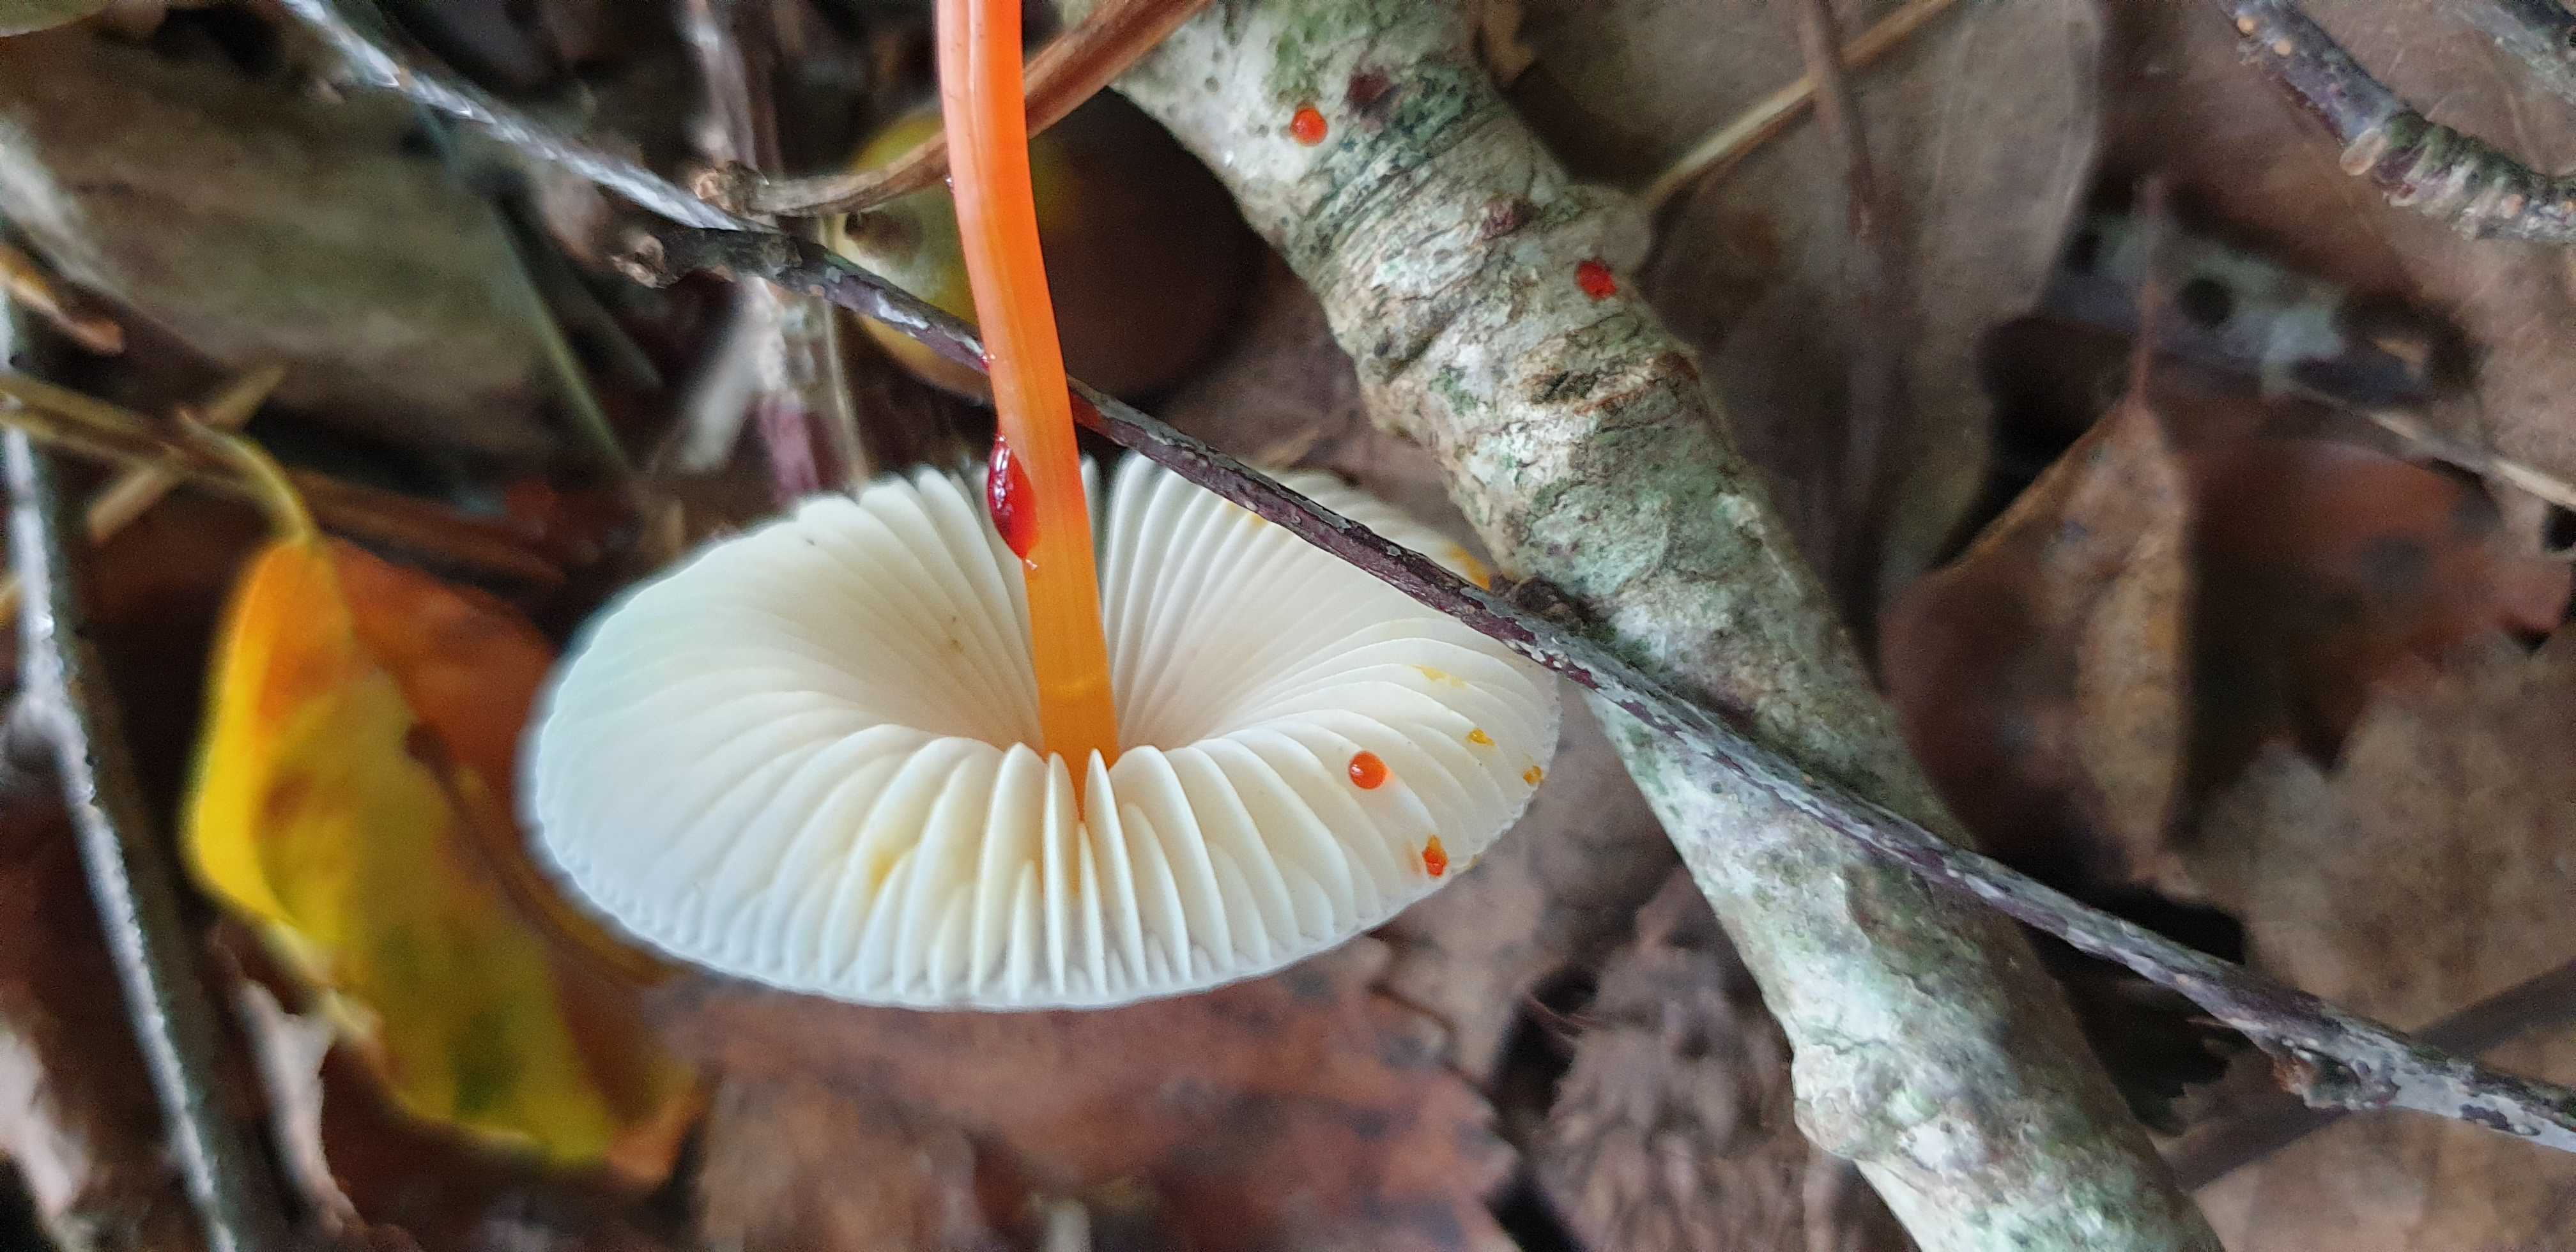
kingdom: Fungi
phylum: Basidiomycota
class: Agaricomycetes
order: Agaricales
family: Mycenaceae
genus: Mycena
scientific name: Mycena crocata
